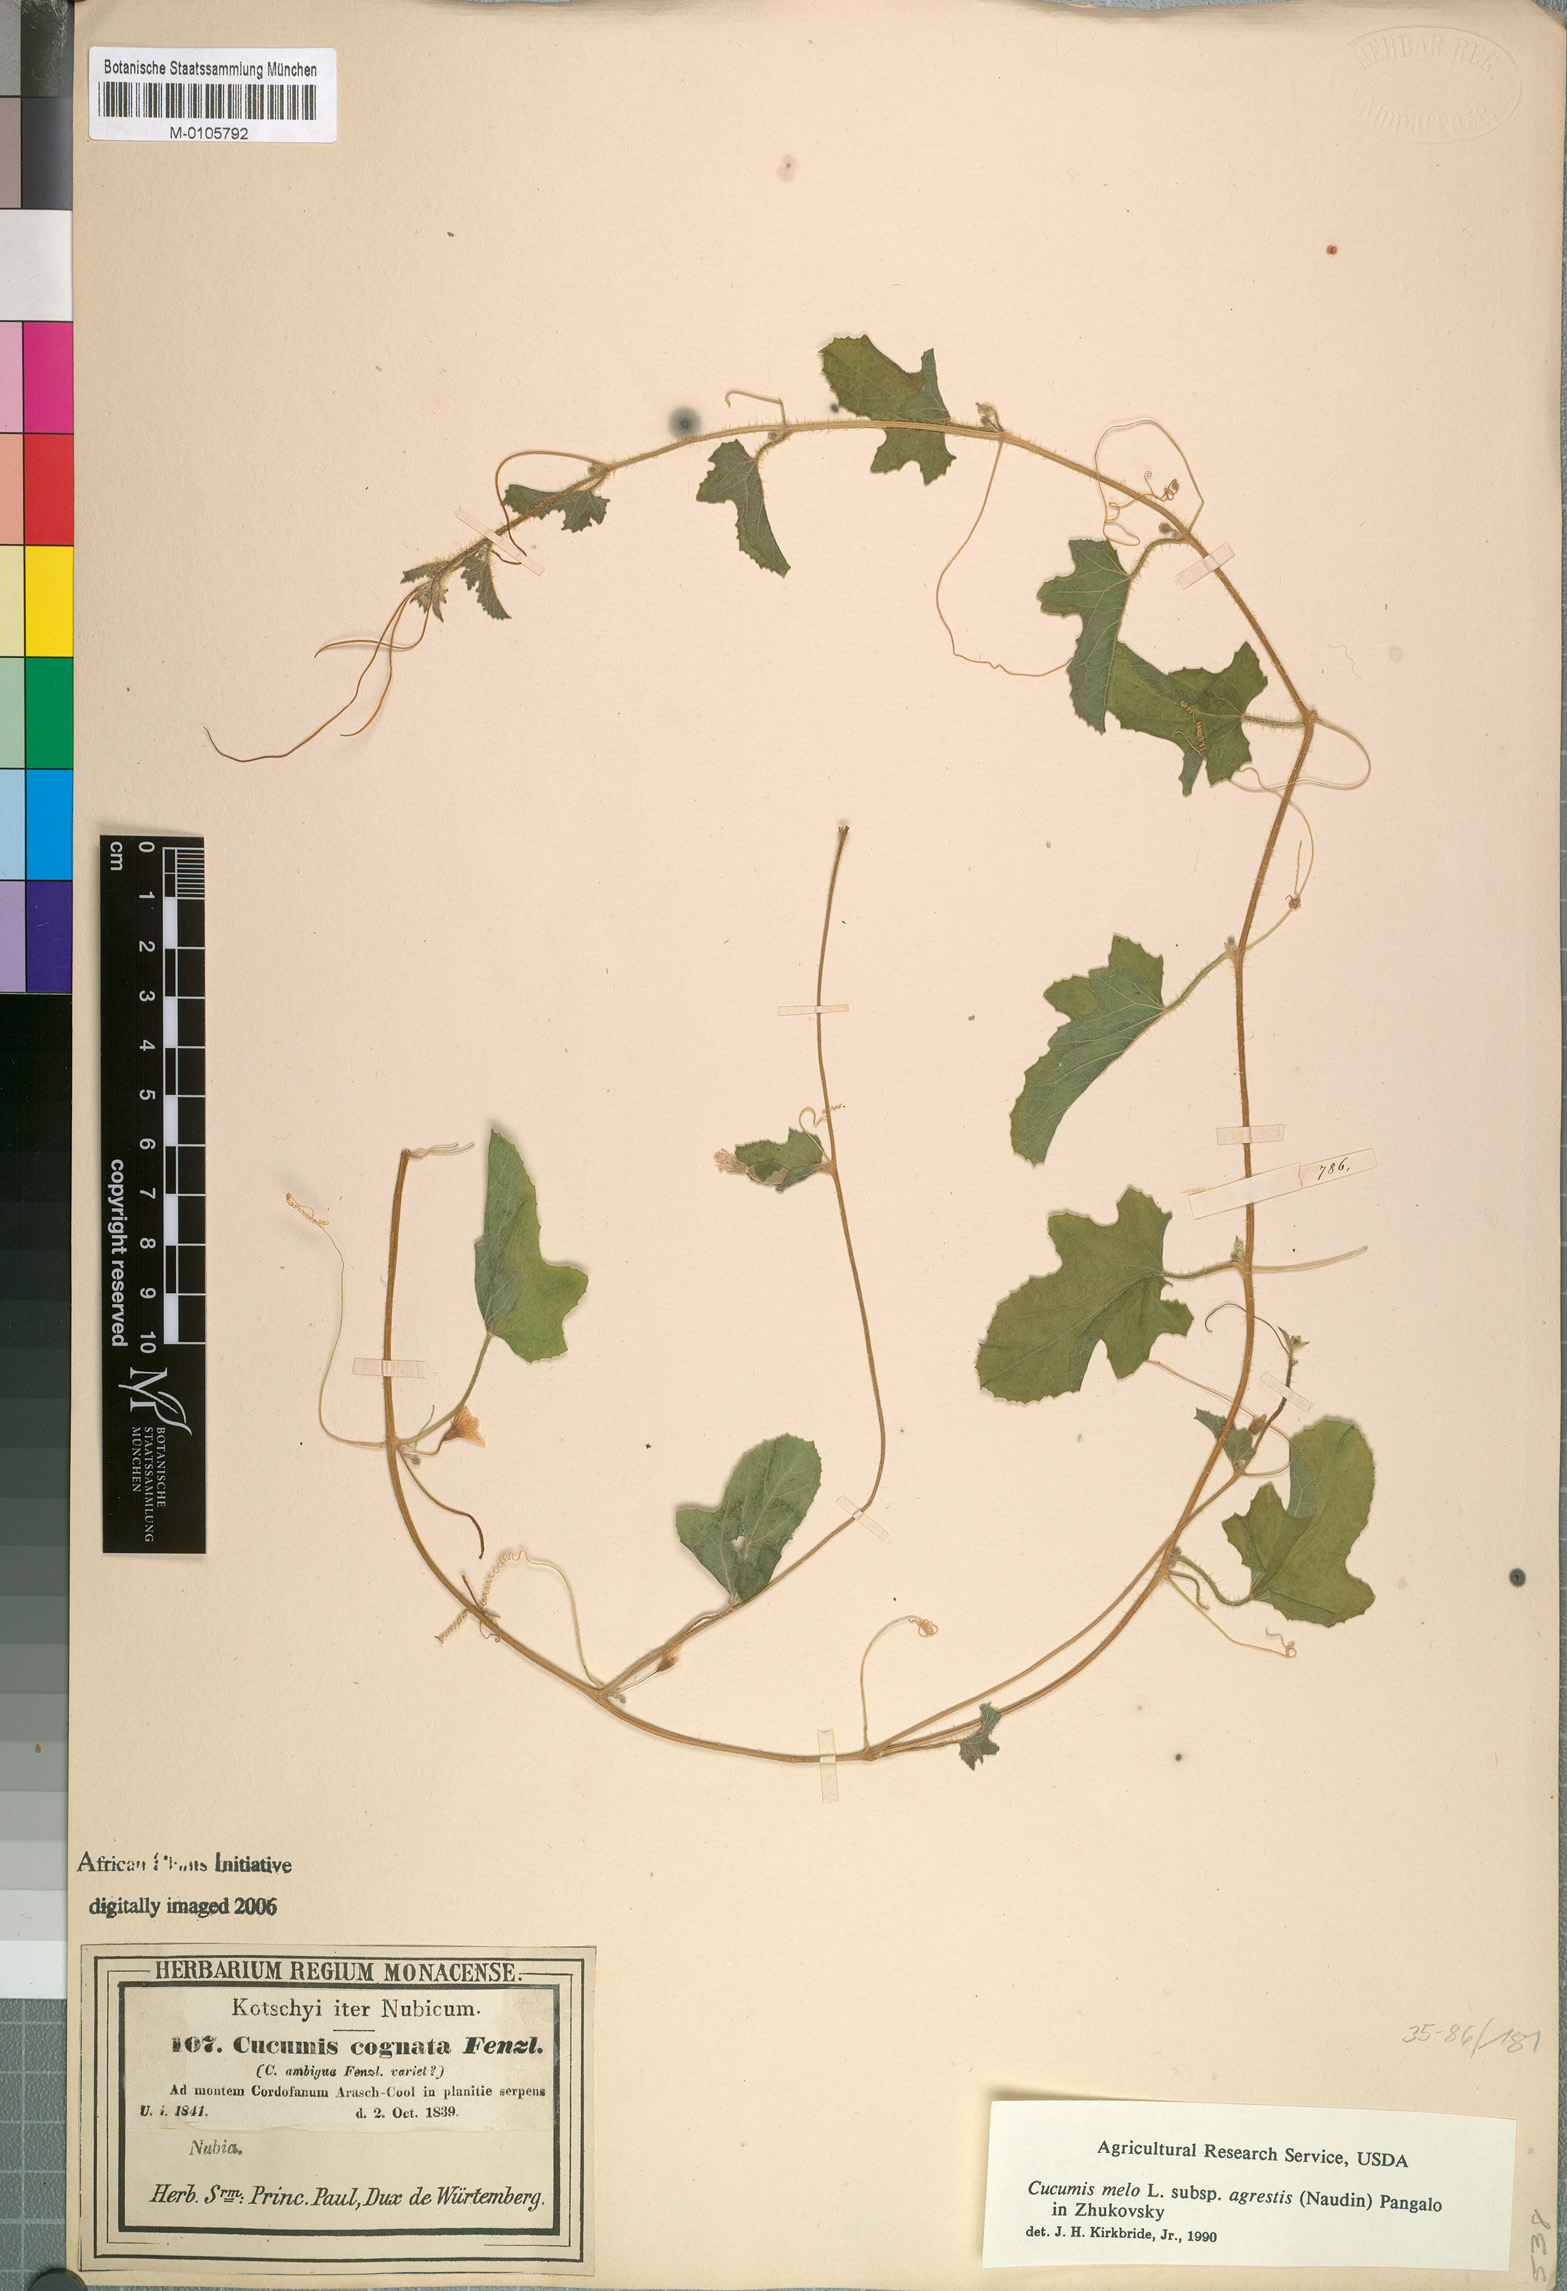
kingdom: Plantae
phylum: Tracheophyta
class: Magnoliopsida
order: Cucurbitales
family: Cucurbitaceae
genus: Cucumis
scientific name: Cucumis melo
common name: Melon
